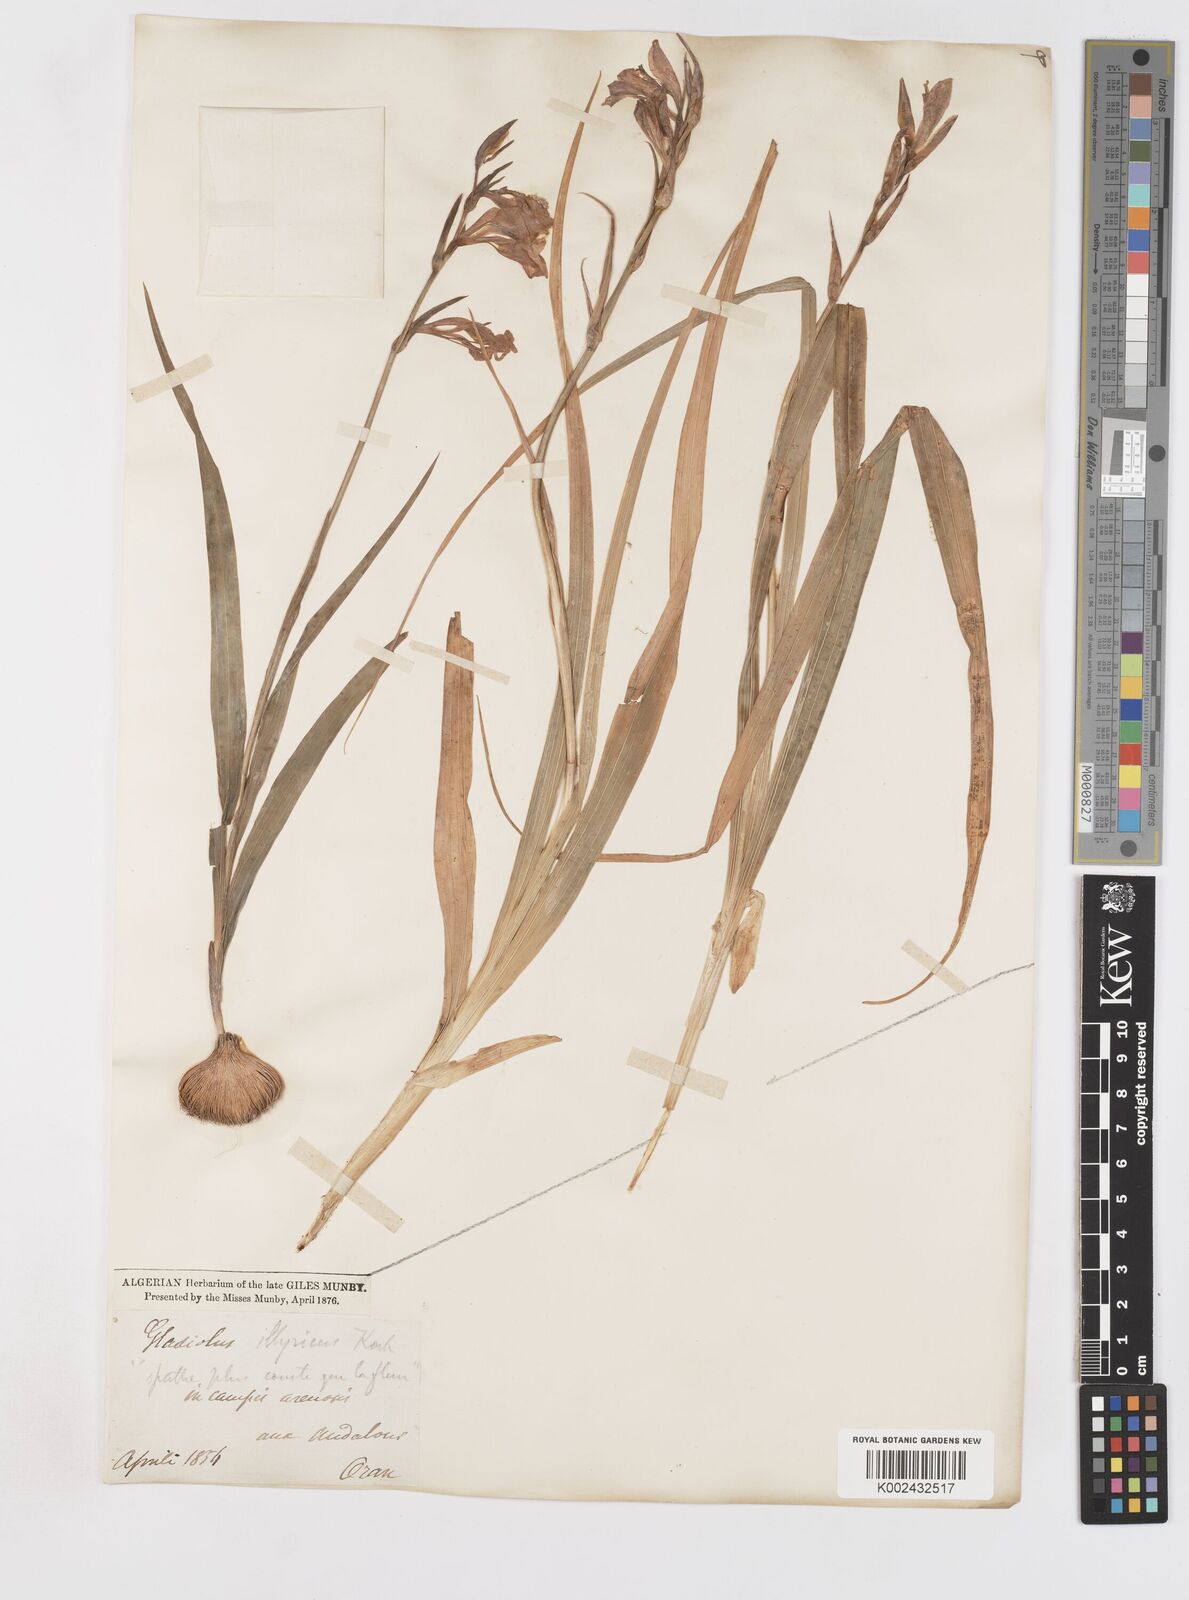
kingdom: Plantae
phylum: Tracheophyta
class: Liliopsida
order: Asparagales
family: Iridaceae
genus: Gladiolus
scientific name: Gladiolus illyricus
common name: Wild gladiolus
